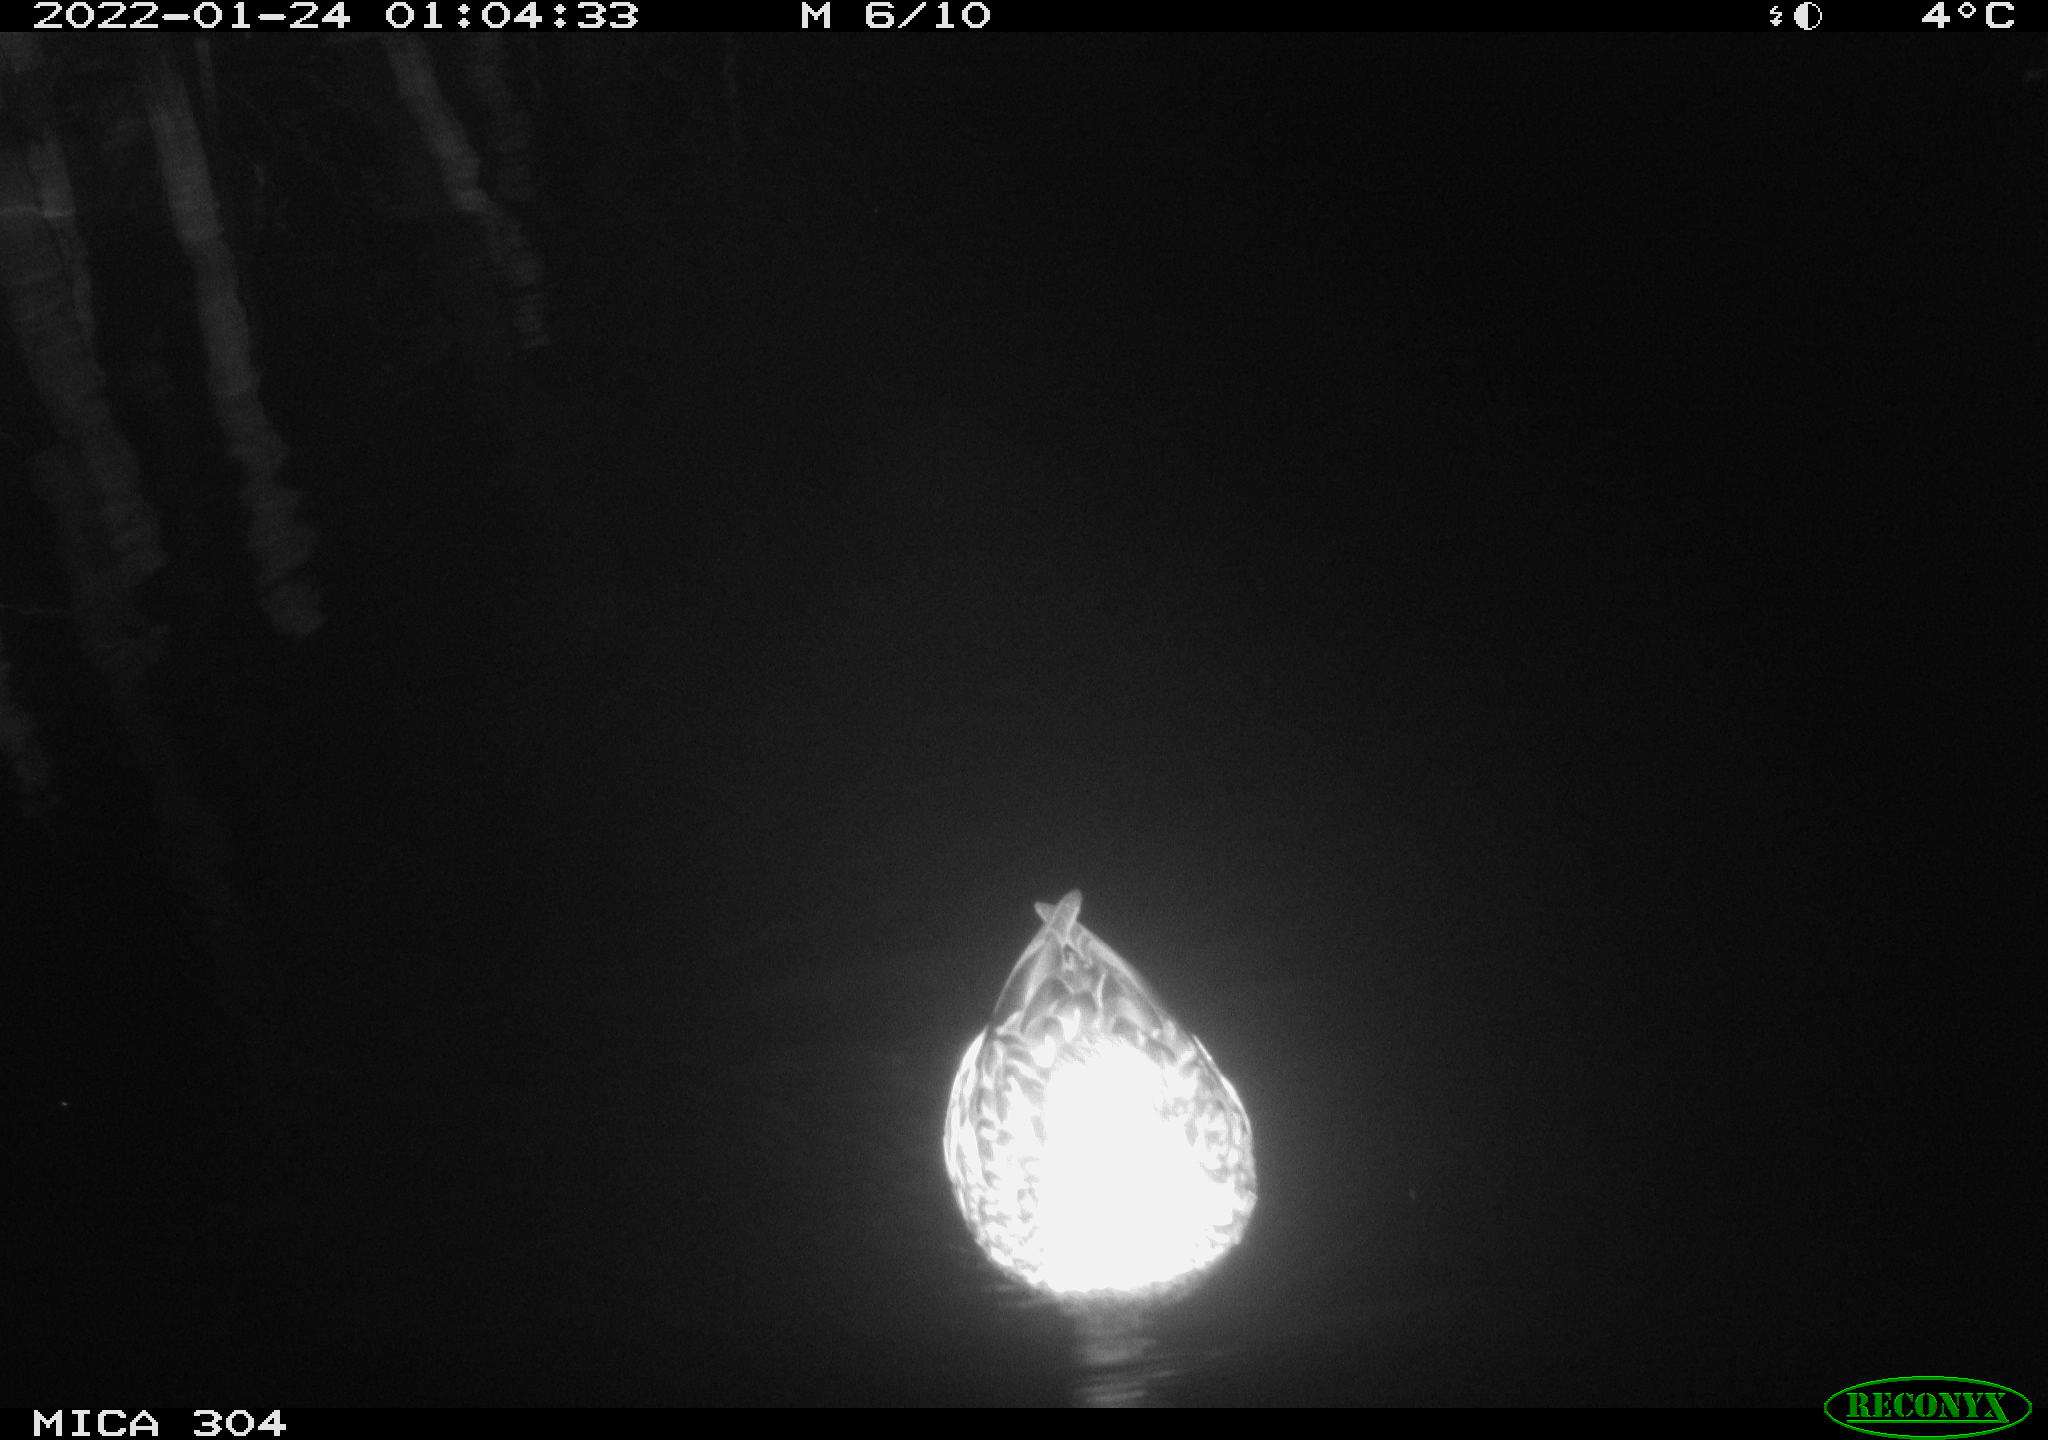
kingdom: Animalia
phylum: Chordata
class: Aves
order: Anseriformes
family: Anatidae
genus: Anas
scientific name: Anas
